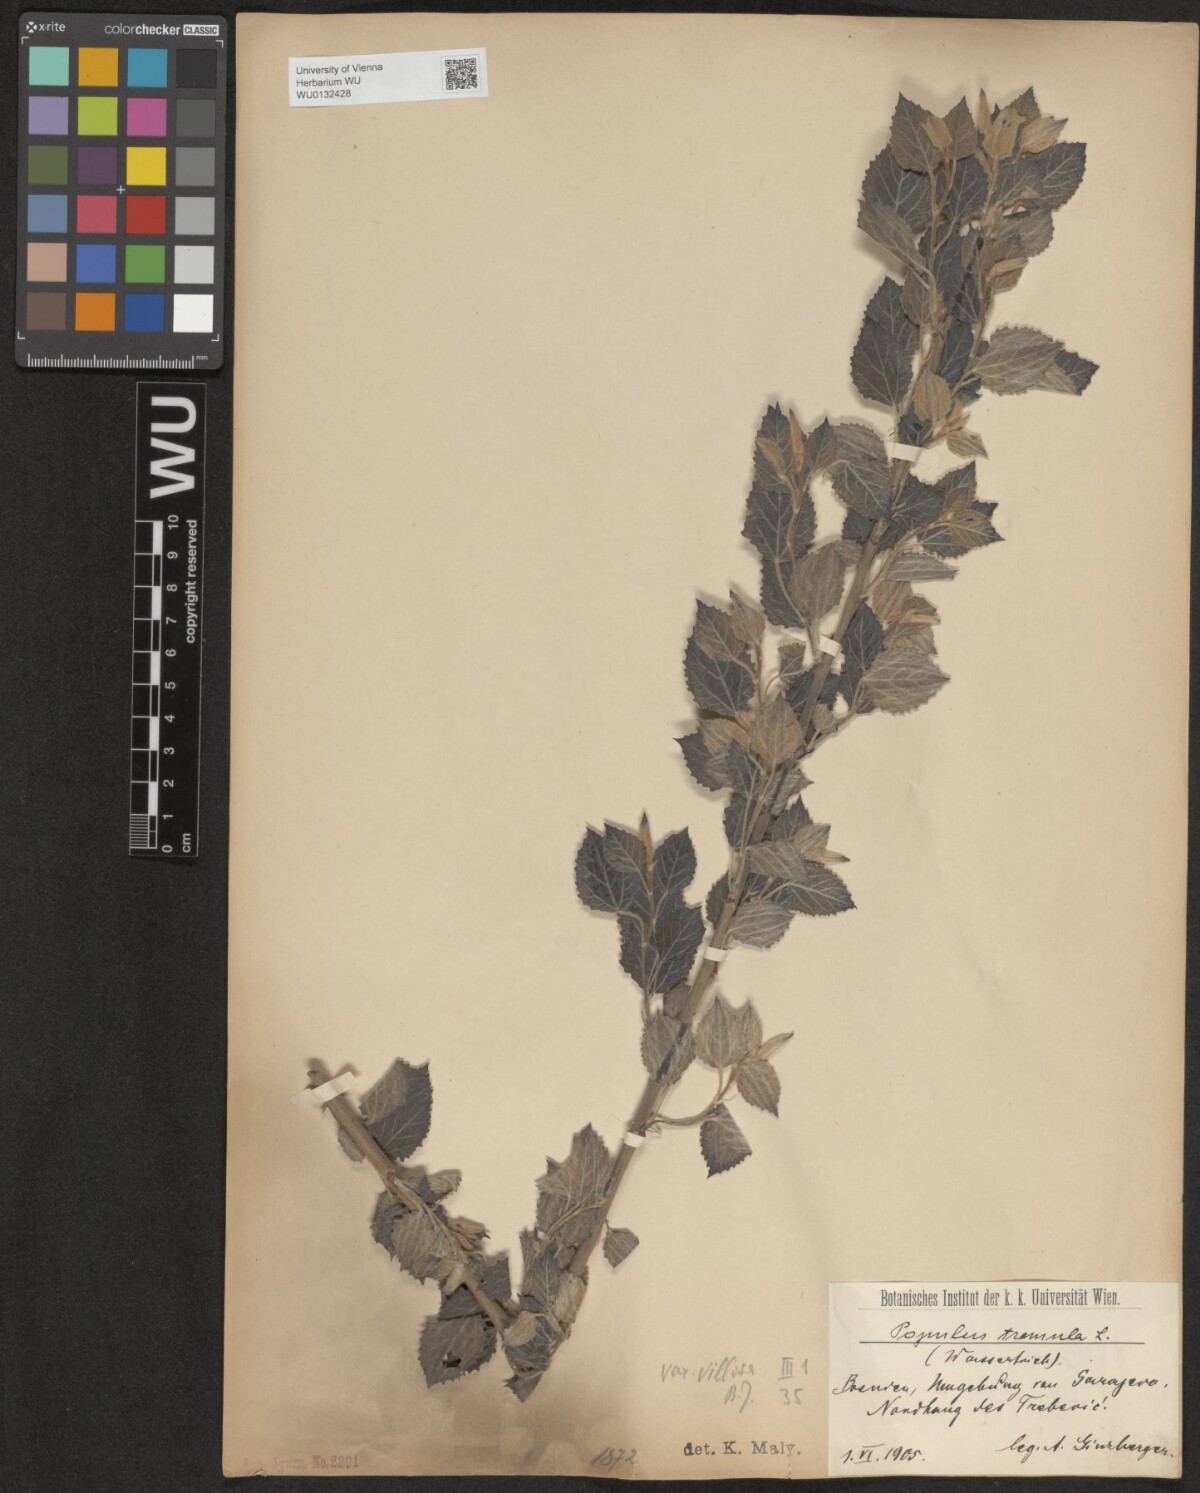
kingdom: Plantae
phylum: Tracheophyta
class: Magnoliopsida
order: Malpighiales
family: Salicaceae
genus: Populus
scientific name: Populus tremula
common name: European aspen
